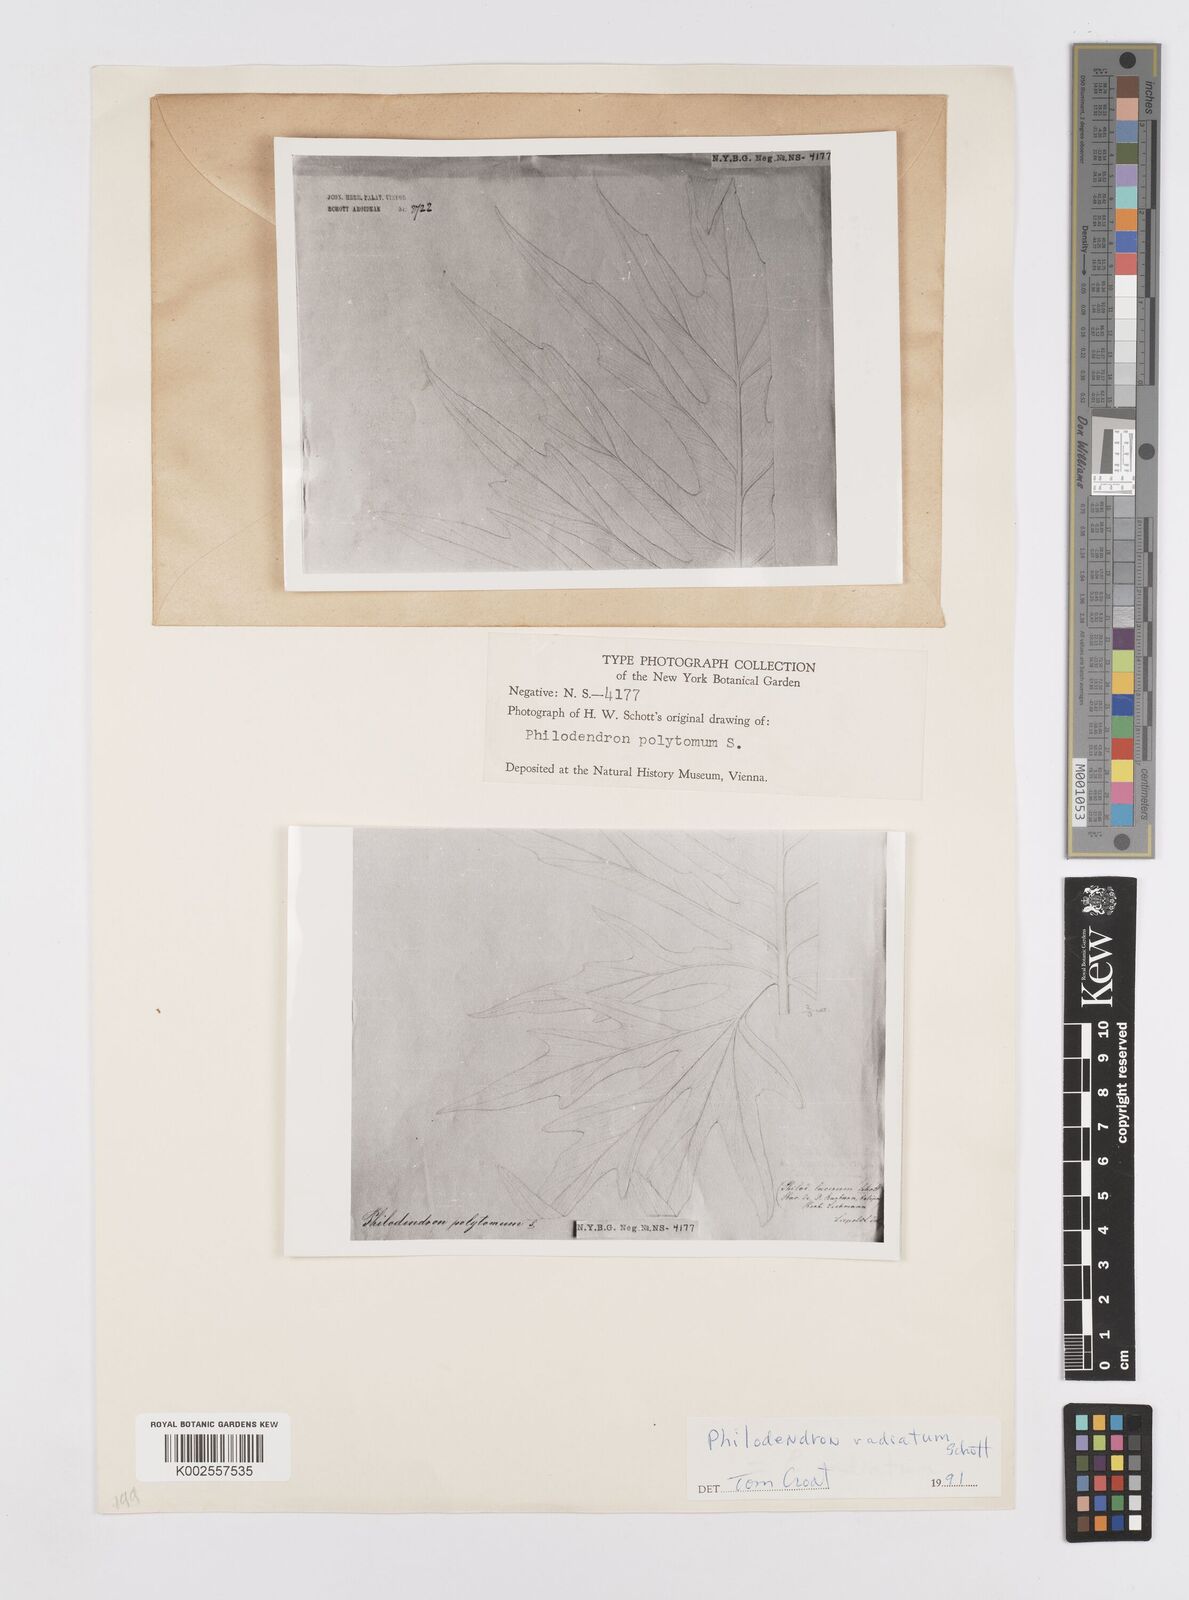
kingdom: Plantae
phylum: Tracheophyta
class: Liliopsida
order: Alismatales
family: Araceae
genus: Philodendron
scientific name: Philodendron radiatum
